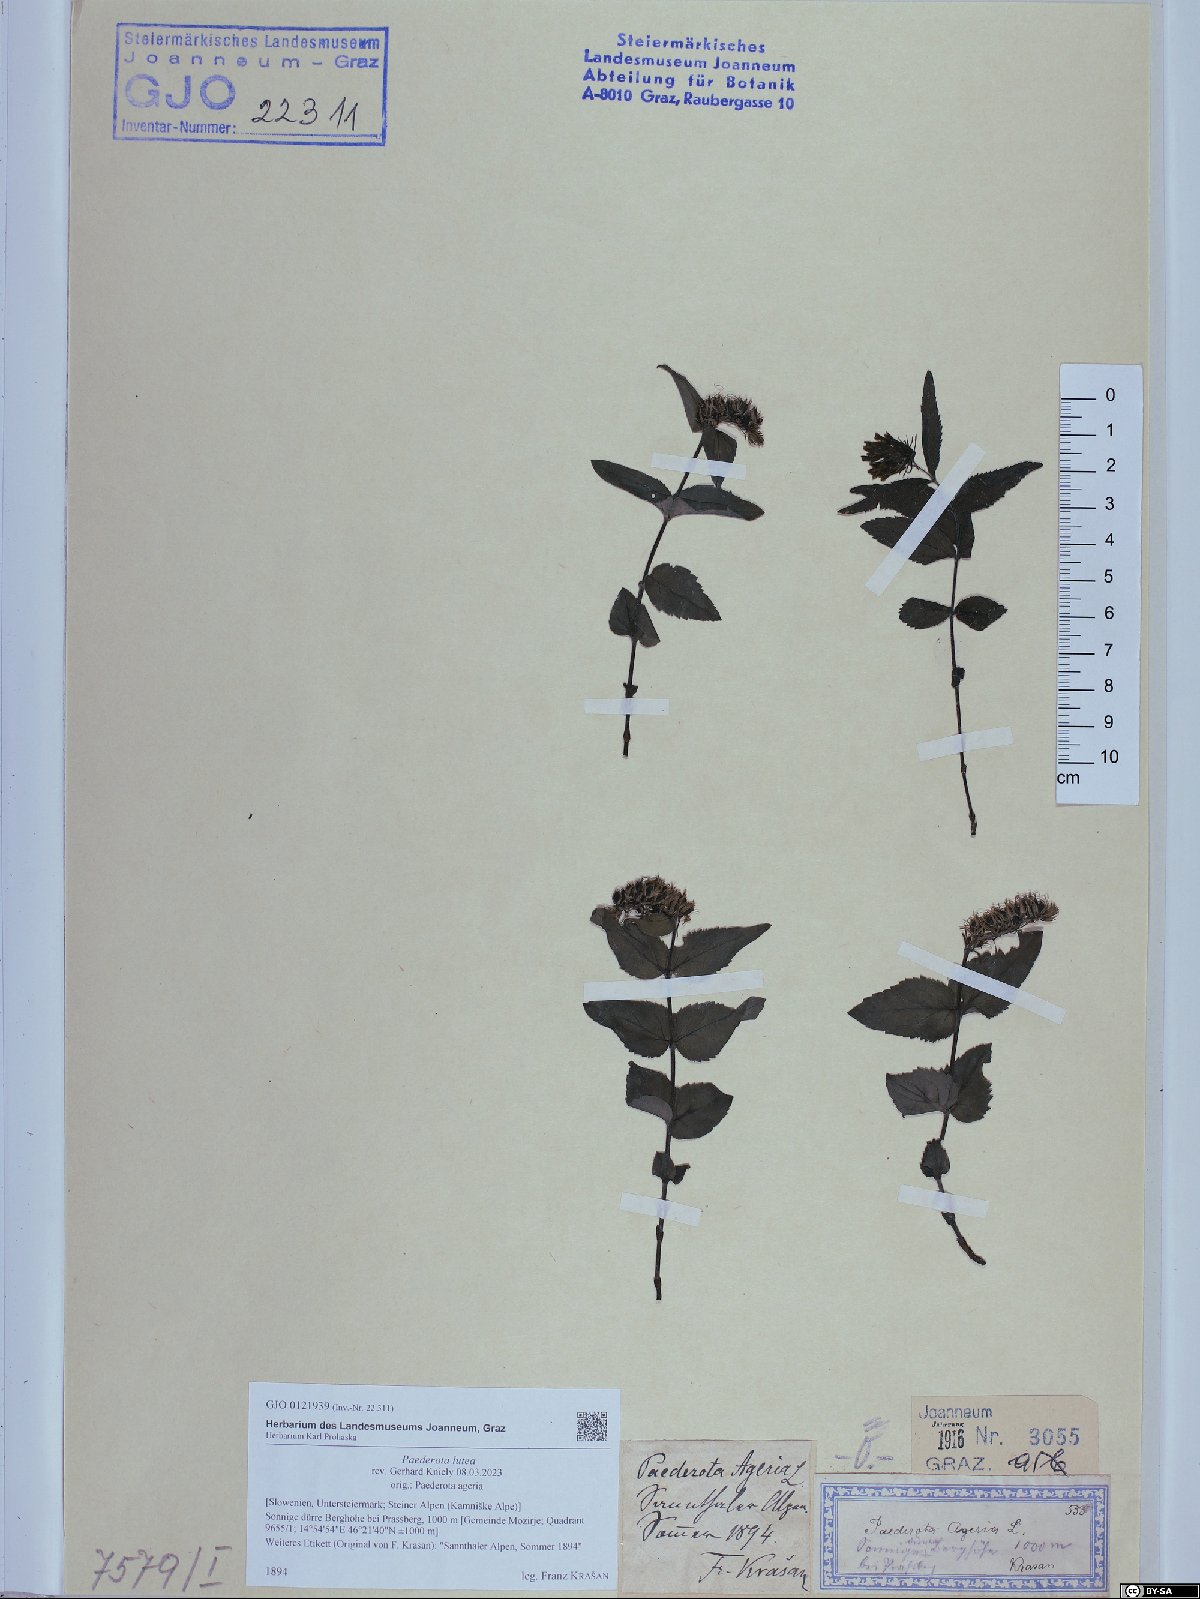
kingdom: Plantae
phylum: Tracheophyta
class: Magnoliopsida
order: Lamiales
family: Plantaginaceae
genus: Paederota
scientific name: Paederota lutea
